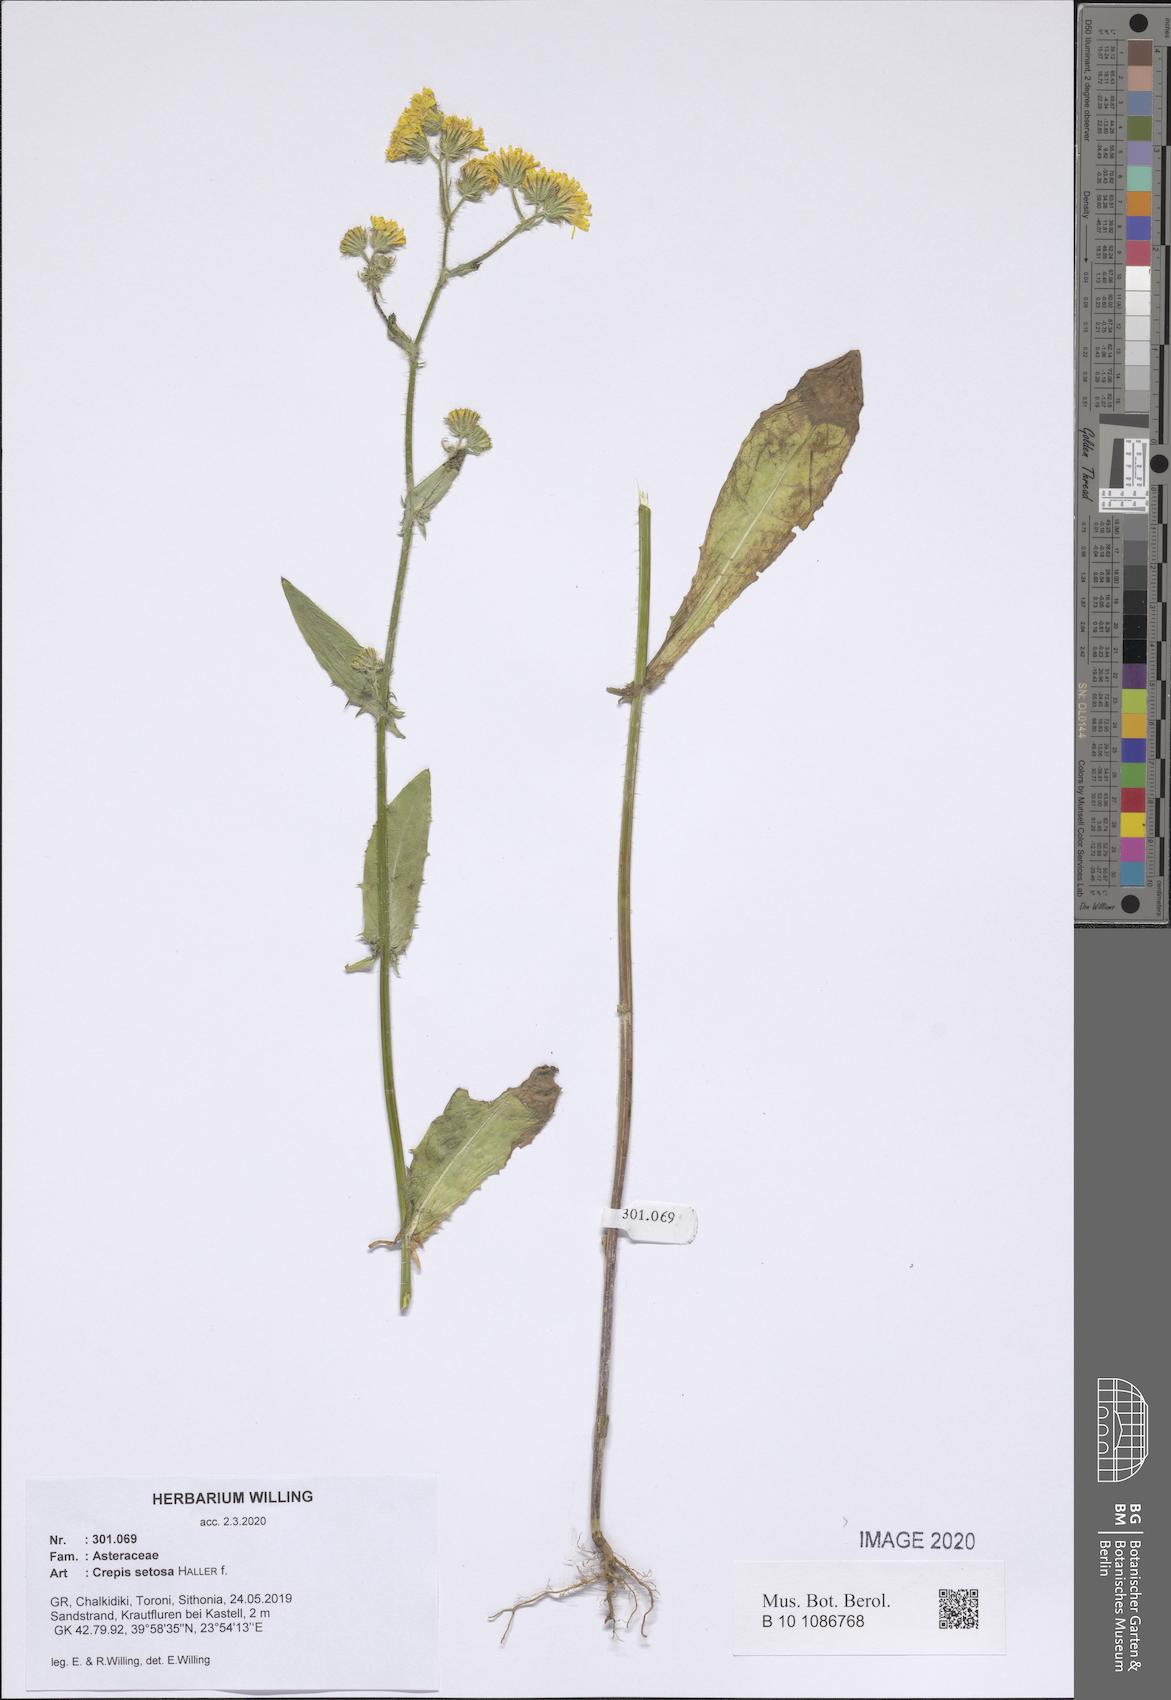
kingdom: Plantae
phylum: Tracheophyta
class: Magnoliopsida
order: Asterales
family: Asteraceae
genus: Crepis
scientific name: Crepis setosa
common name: Bristly hawk's-beard
